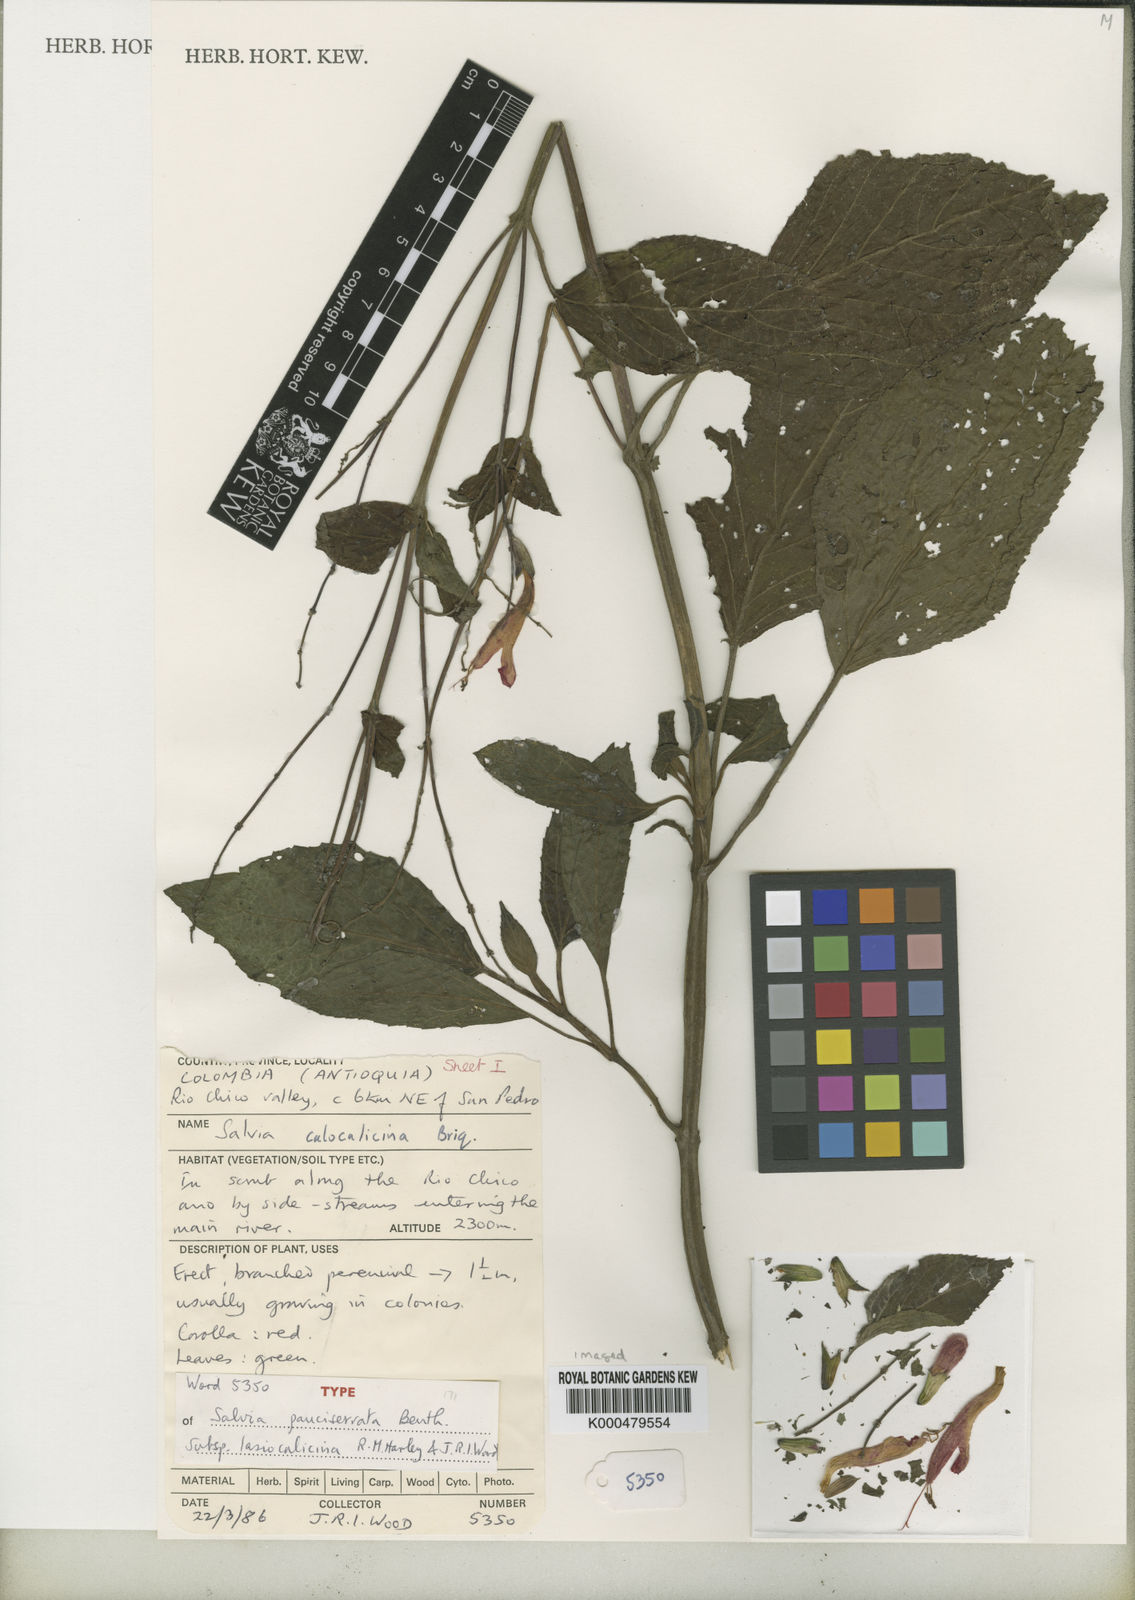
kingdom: Plantae
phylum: Tracheophyta
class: Magnoliopsida
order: Lamiales
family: Lamiaceae
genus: Salvia
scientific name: Salvia pauciserrata
